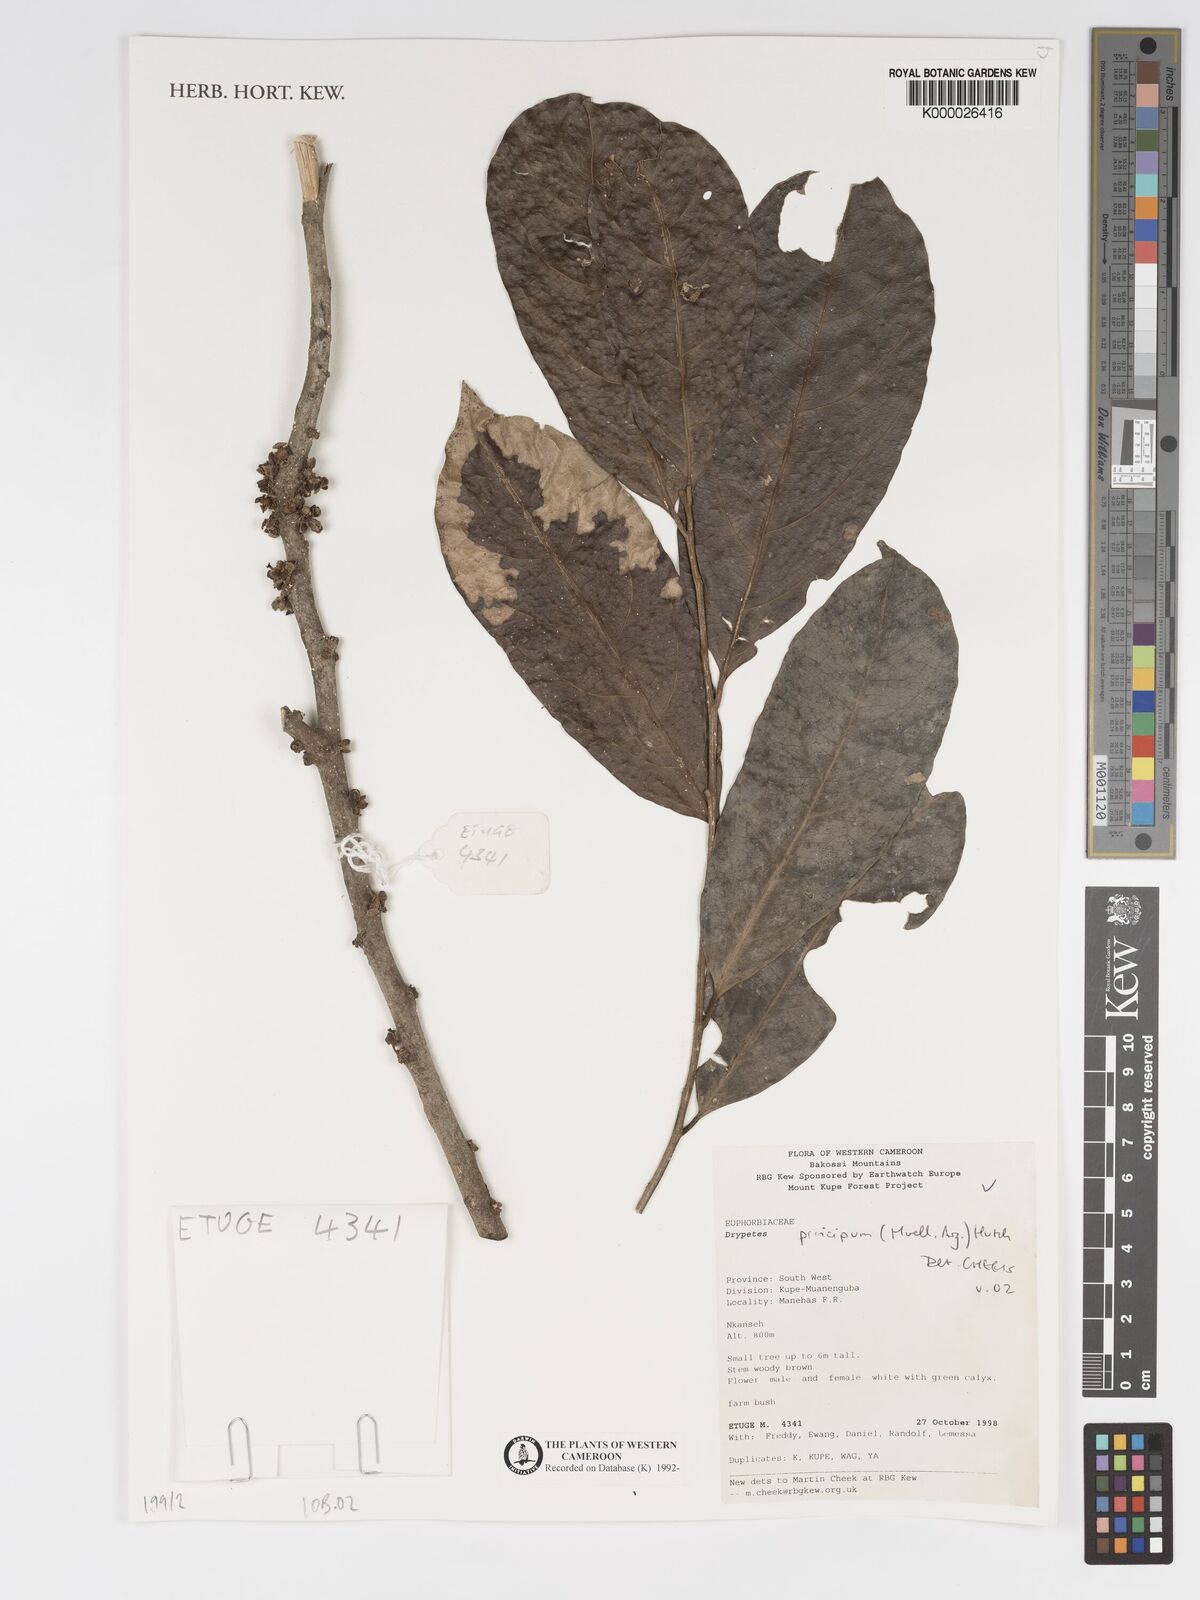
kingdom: Plantae
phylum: Tracheophyta
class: Magnoliopsida
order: Malpighiales
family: Putranjivaceae
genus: Drypetes
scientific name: Drypetes
